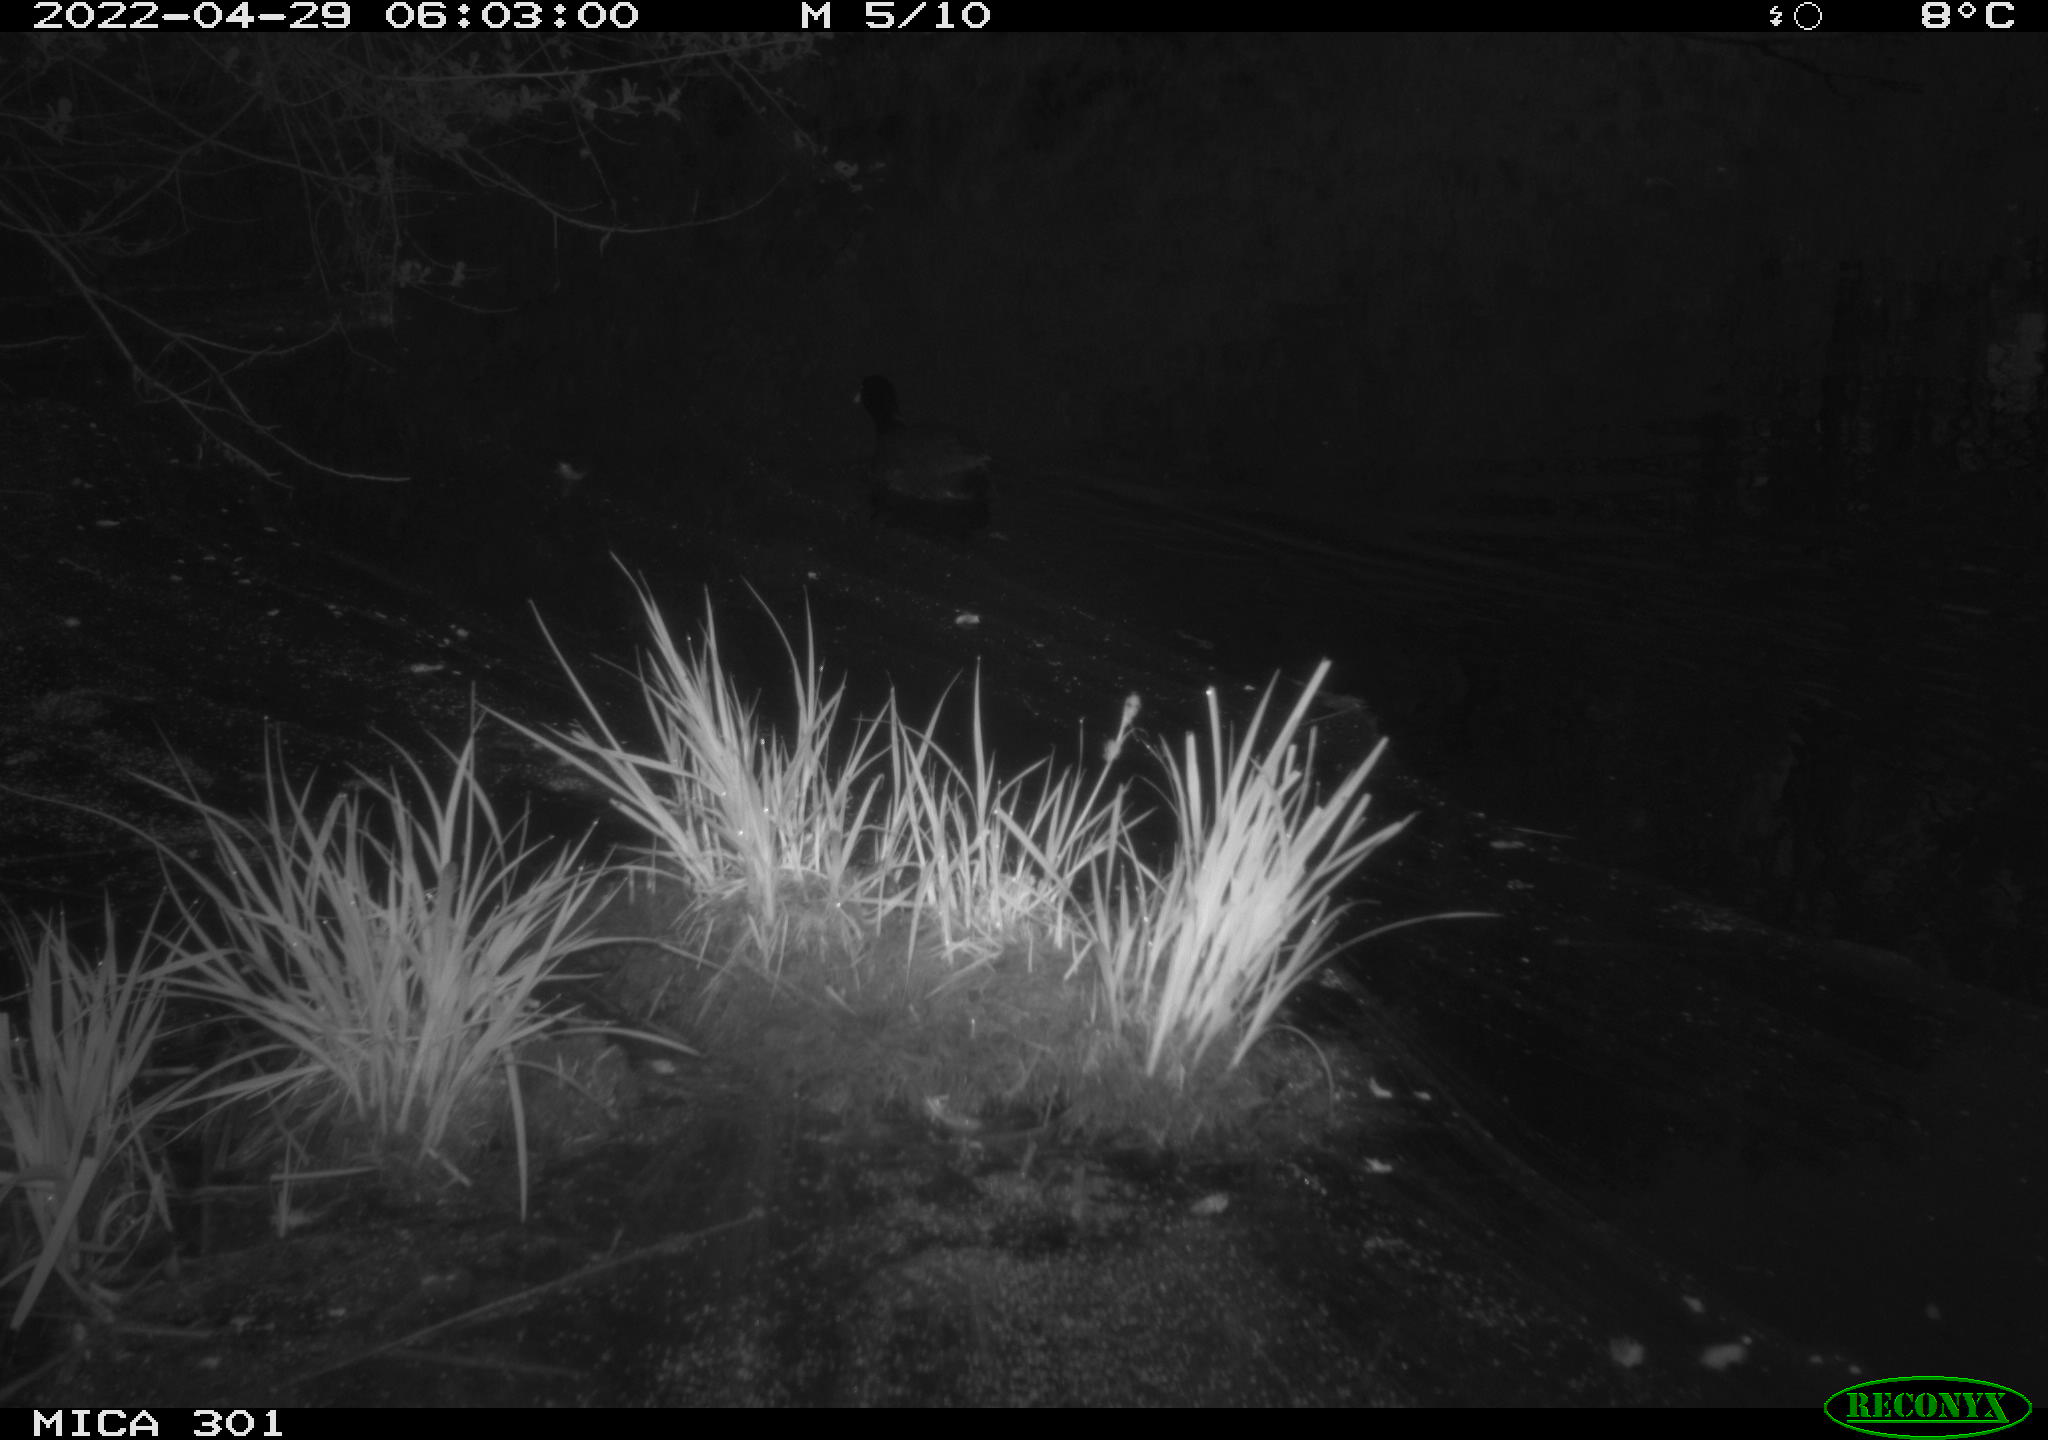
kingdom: Animalia
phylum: Chordata
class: Aves
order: Gruiformes
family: Rallidae
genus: Fulica
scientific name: Fulica atra
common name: Eurasian coot
